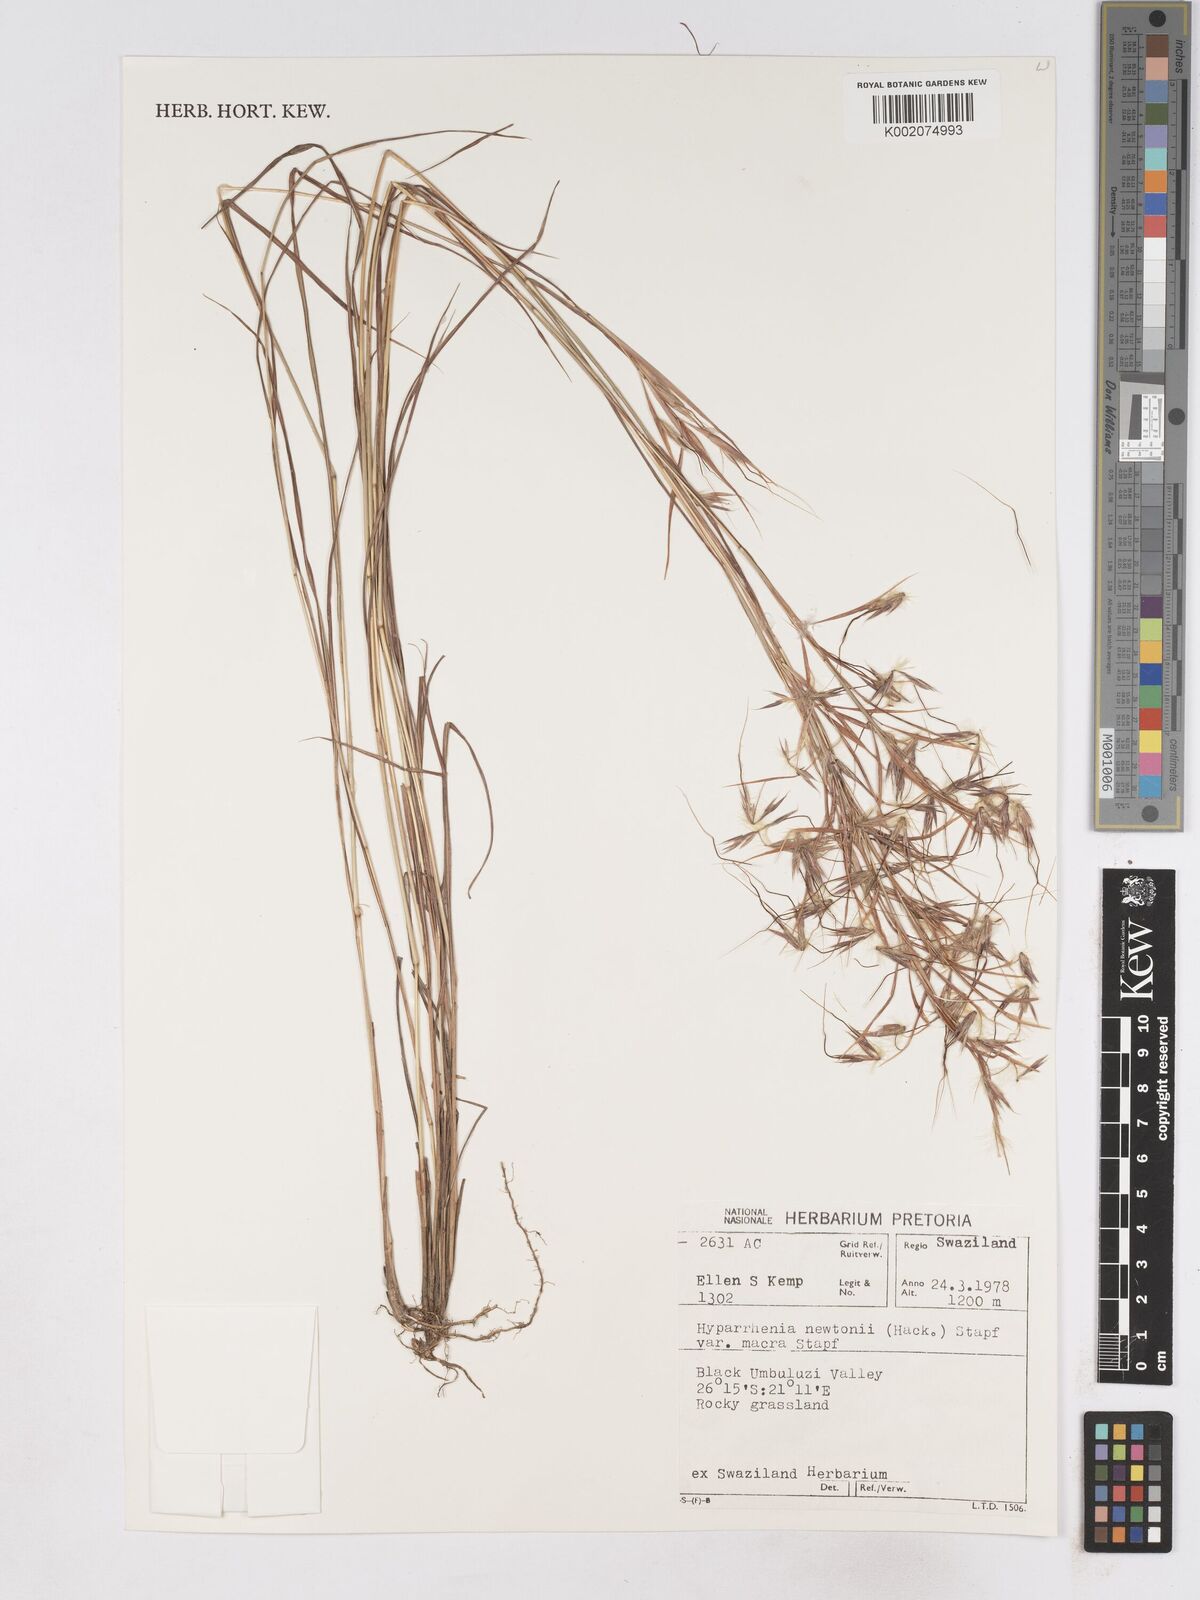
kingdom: Plantae
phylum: Tracheophyta
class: Liliopsida
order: Poales
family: Poaceae
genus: Hyparrhenia
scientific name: Hyparrhenia newtonii
